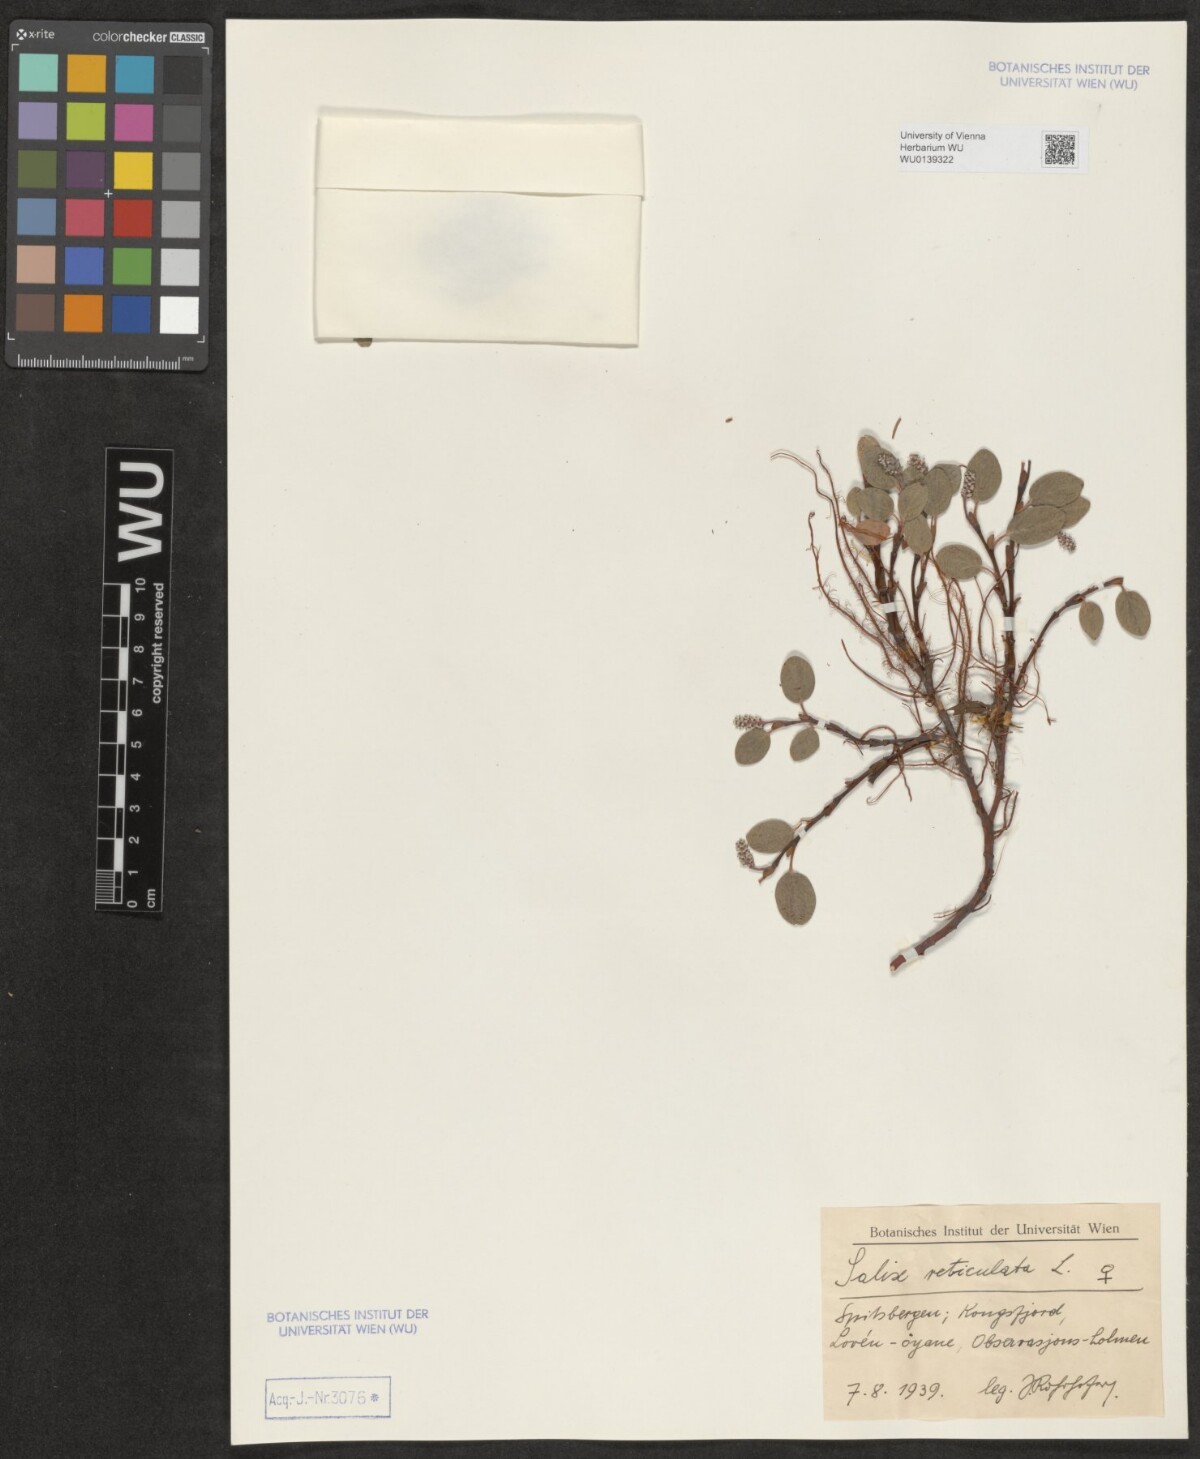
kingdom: Plantae
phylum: Tracheophyta
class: Magnoliopsida
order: Malpighiales
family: Salicaceae
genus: Salix
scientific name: Salix reticulata
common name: Net-leaved willow
